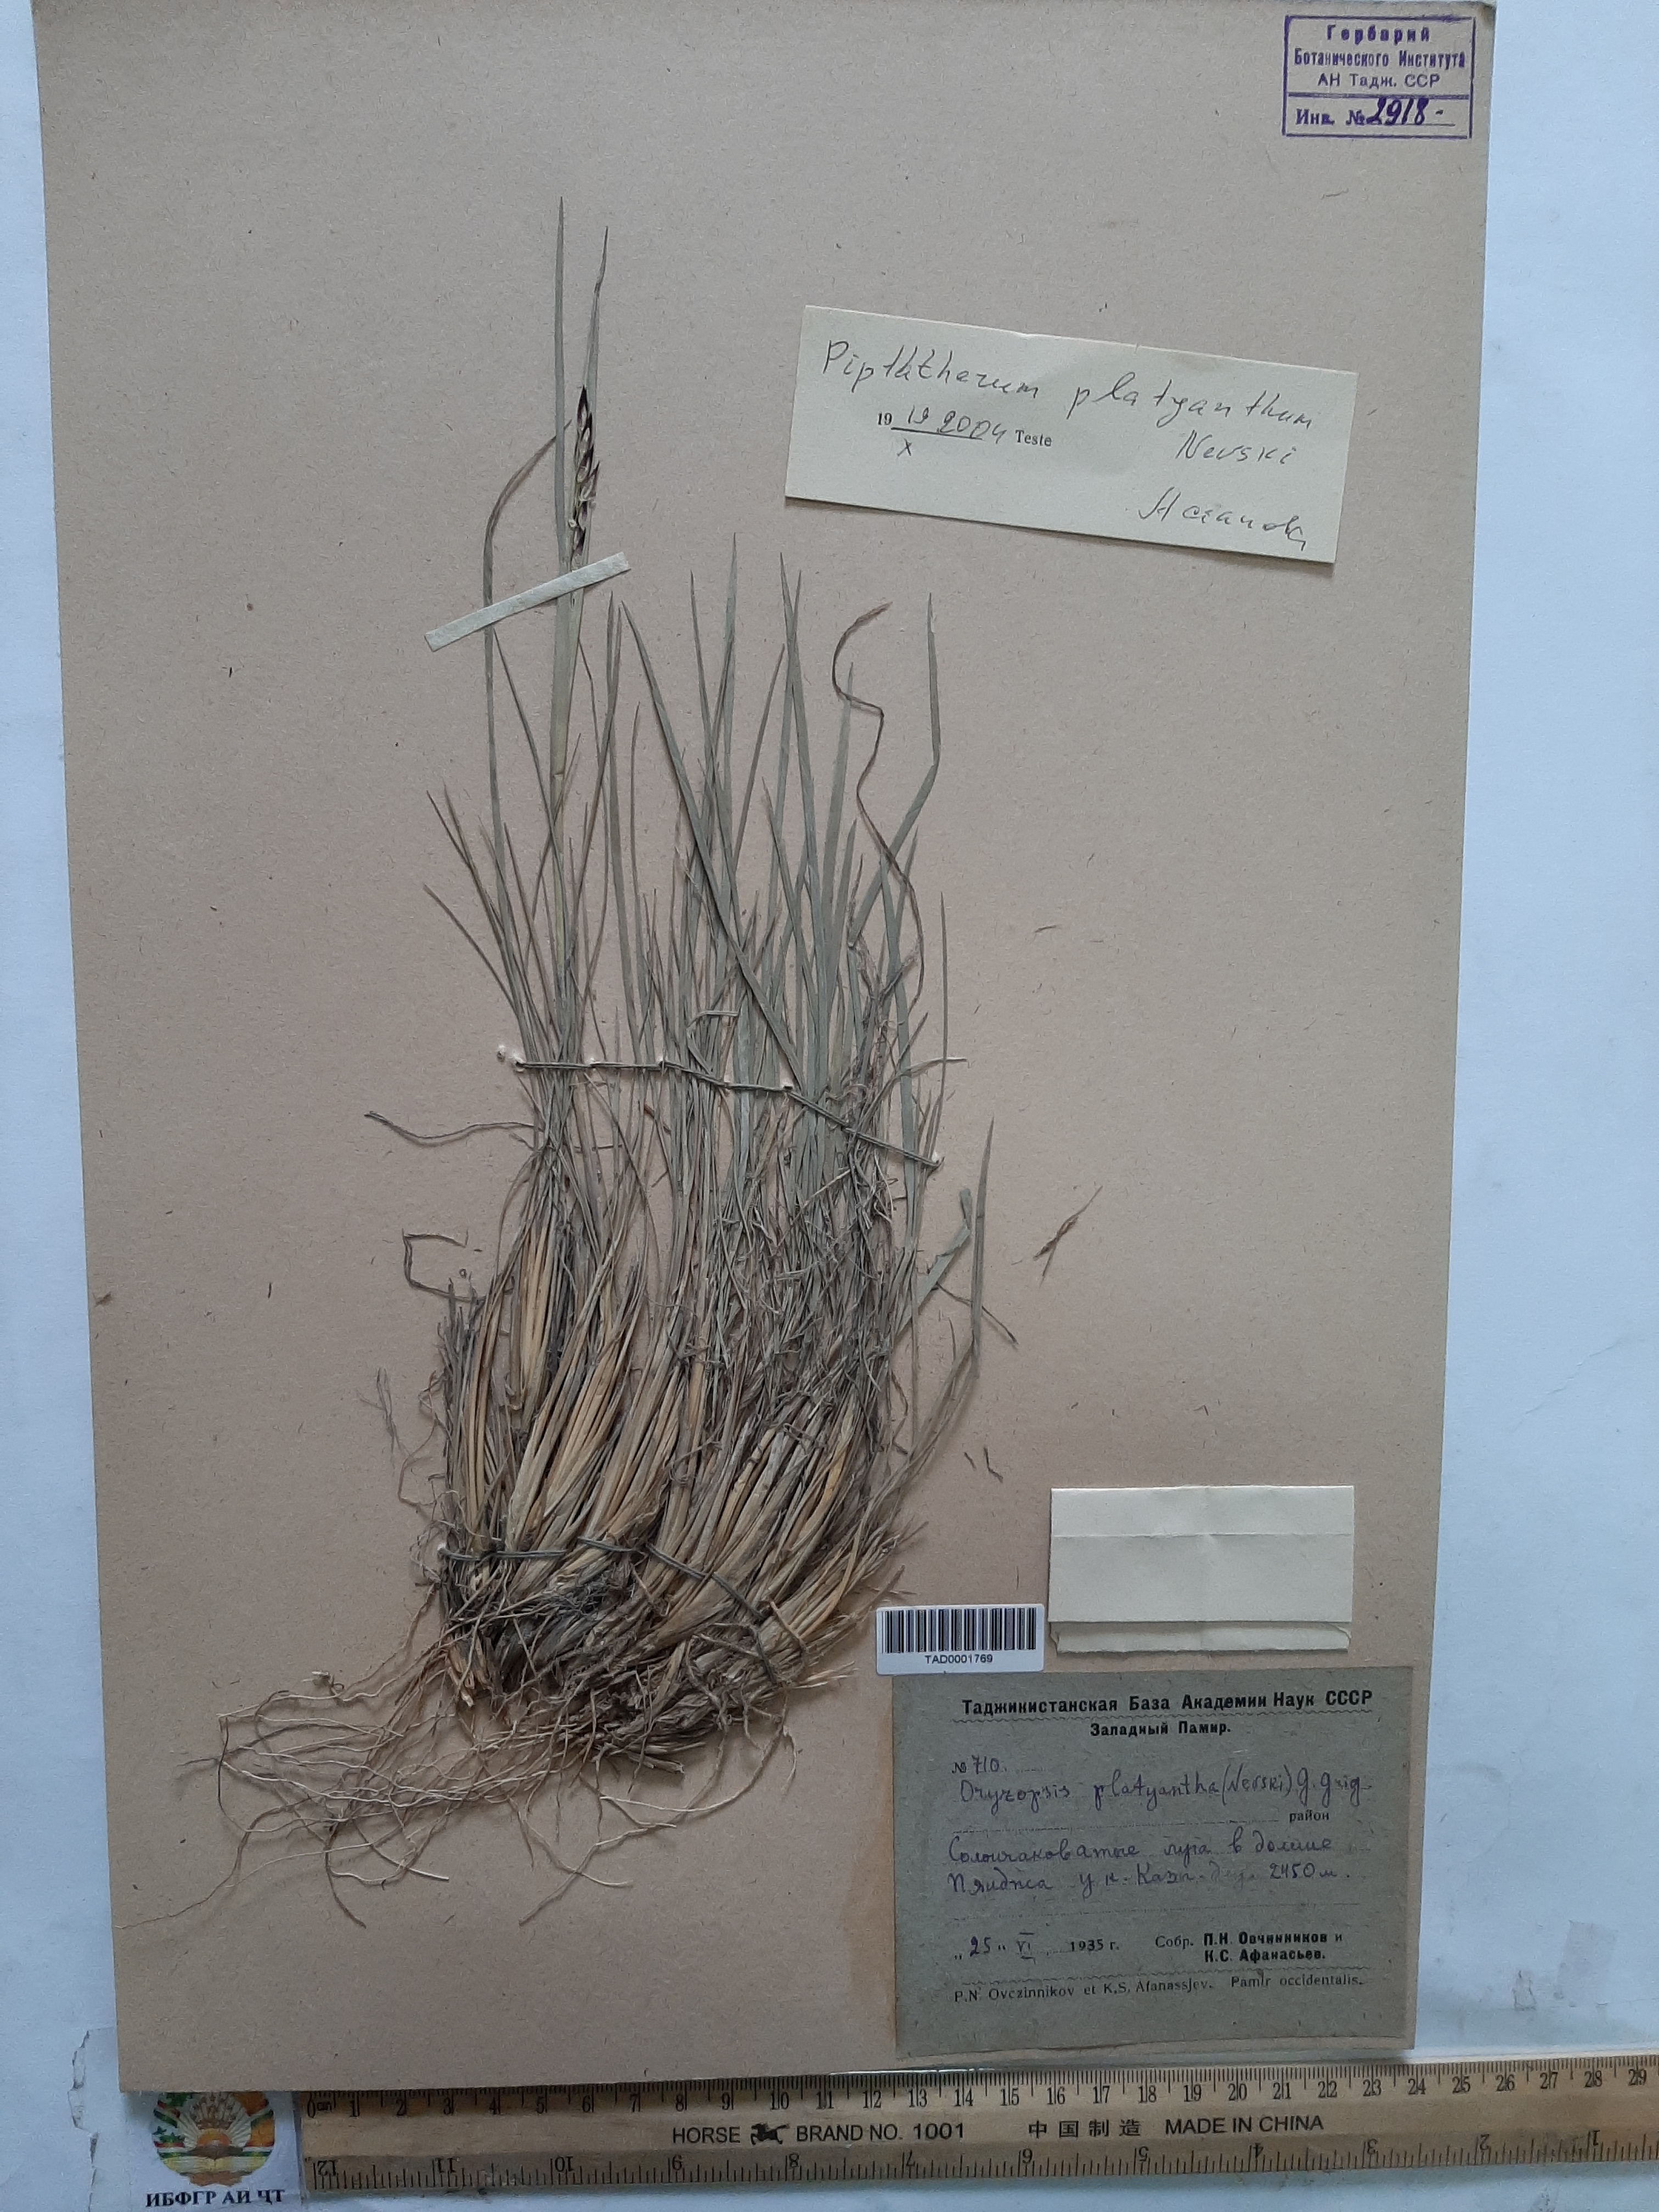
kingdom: Plantae
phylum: Tracheophyta
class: Liliopsida
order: Poales
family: Poaceae
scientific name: Poaceae
